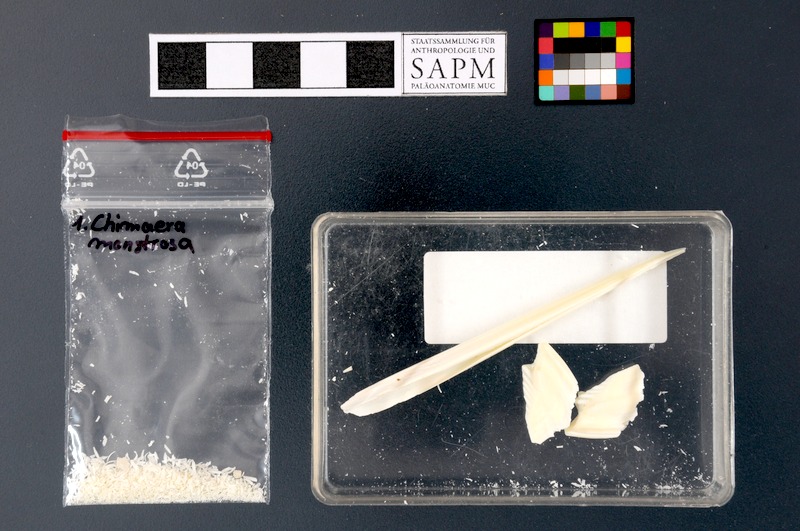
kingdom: Animalia
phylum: Chordata
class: Holocephali
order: Chimaeriformes
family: Chimaeridae
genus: Chimaera
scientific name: Chimaera monstrosa
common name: Rabbitfish
